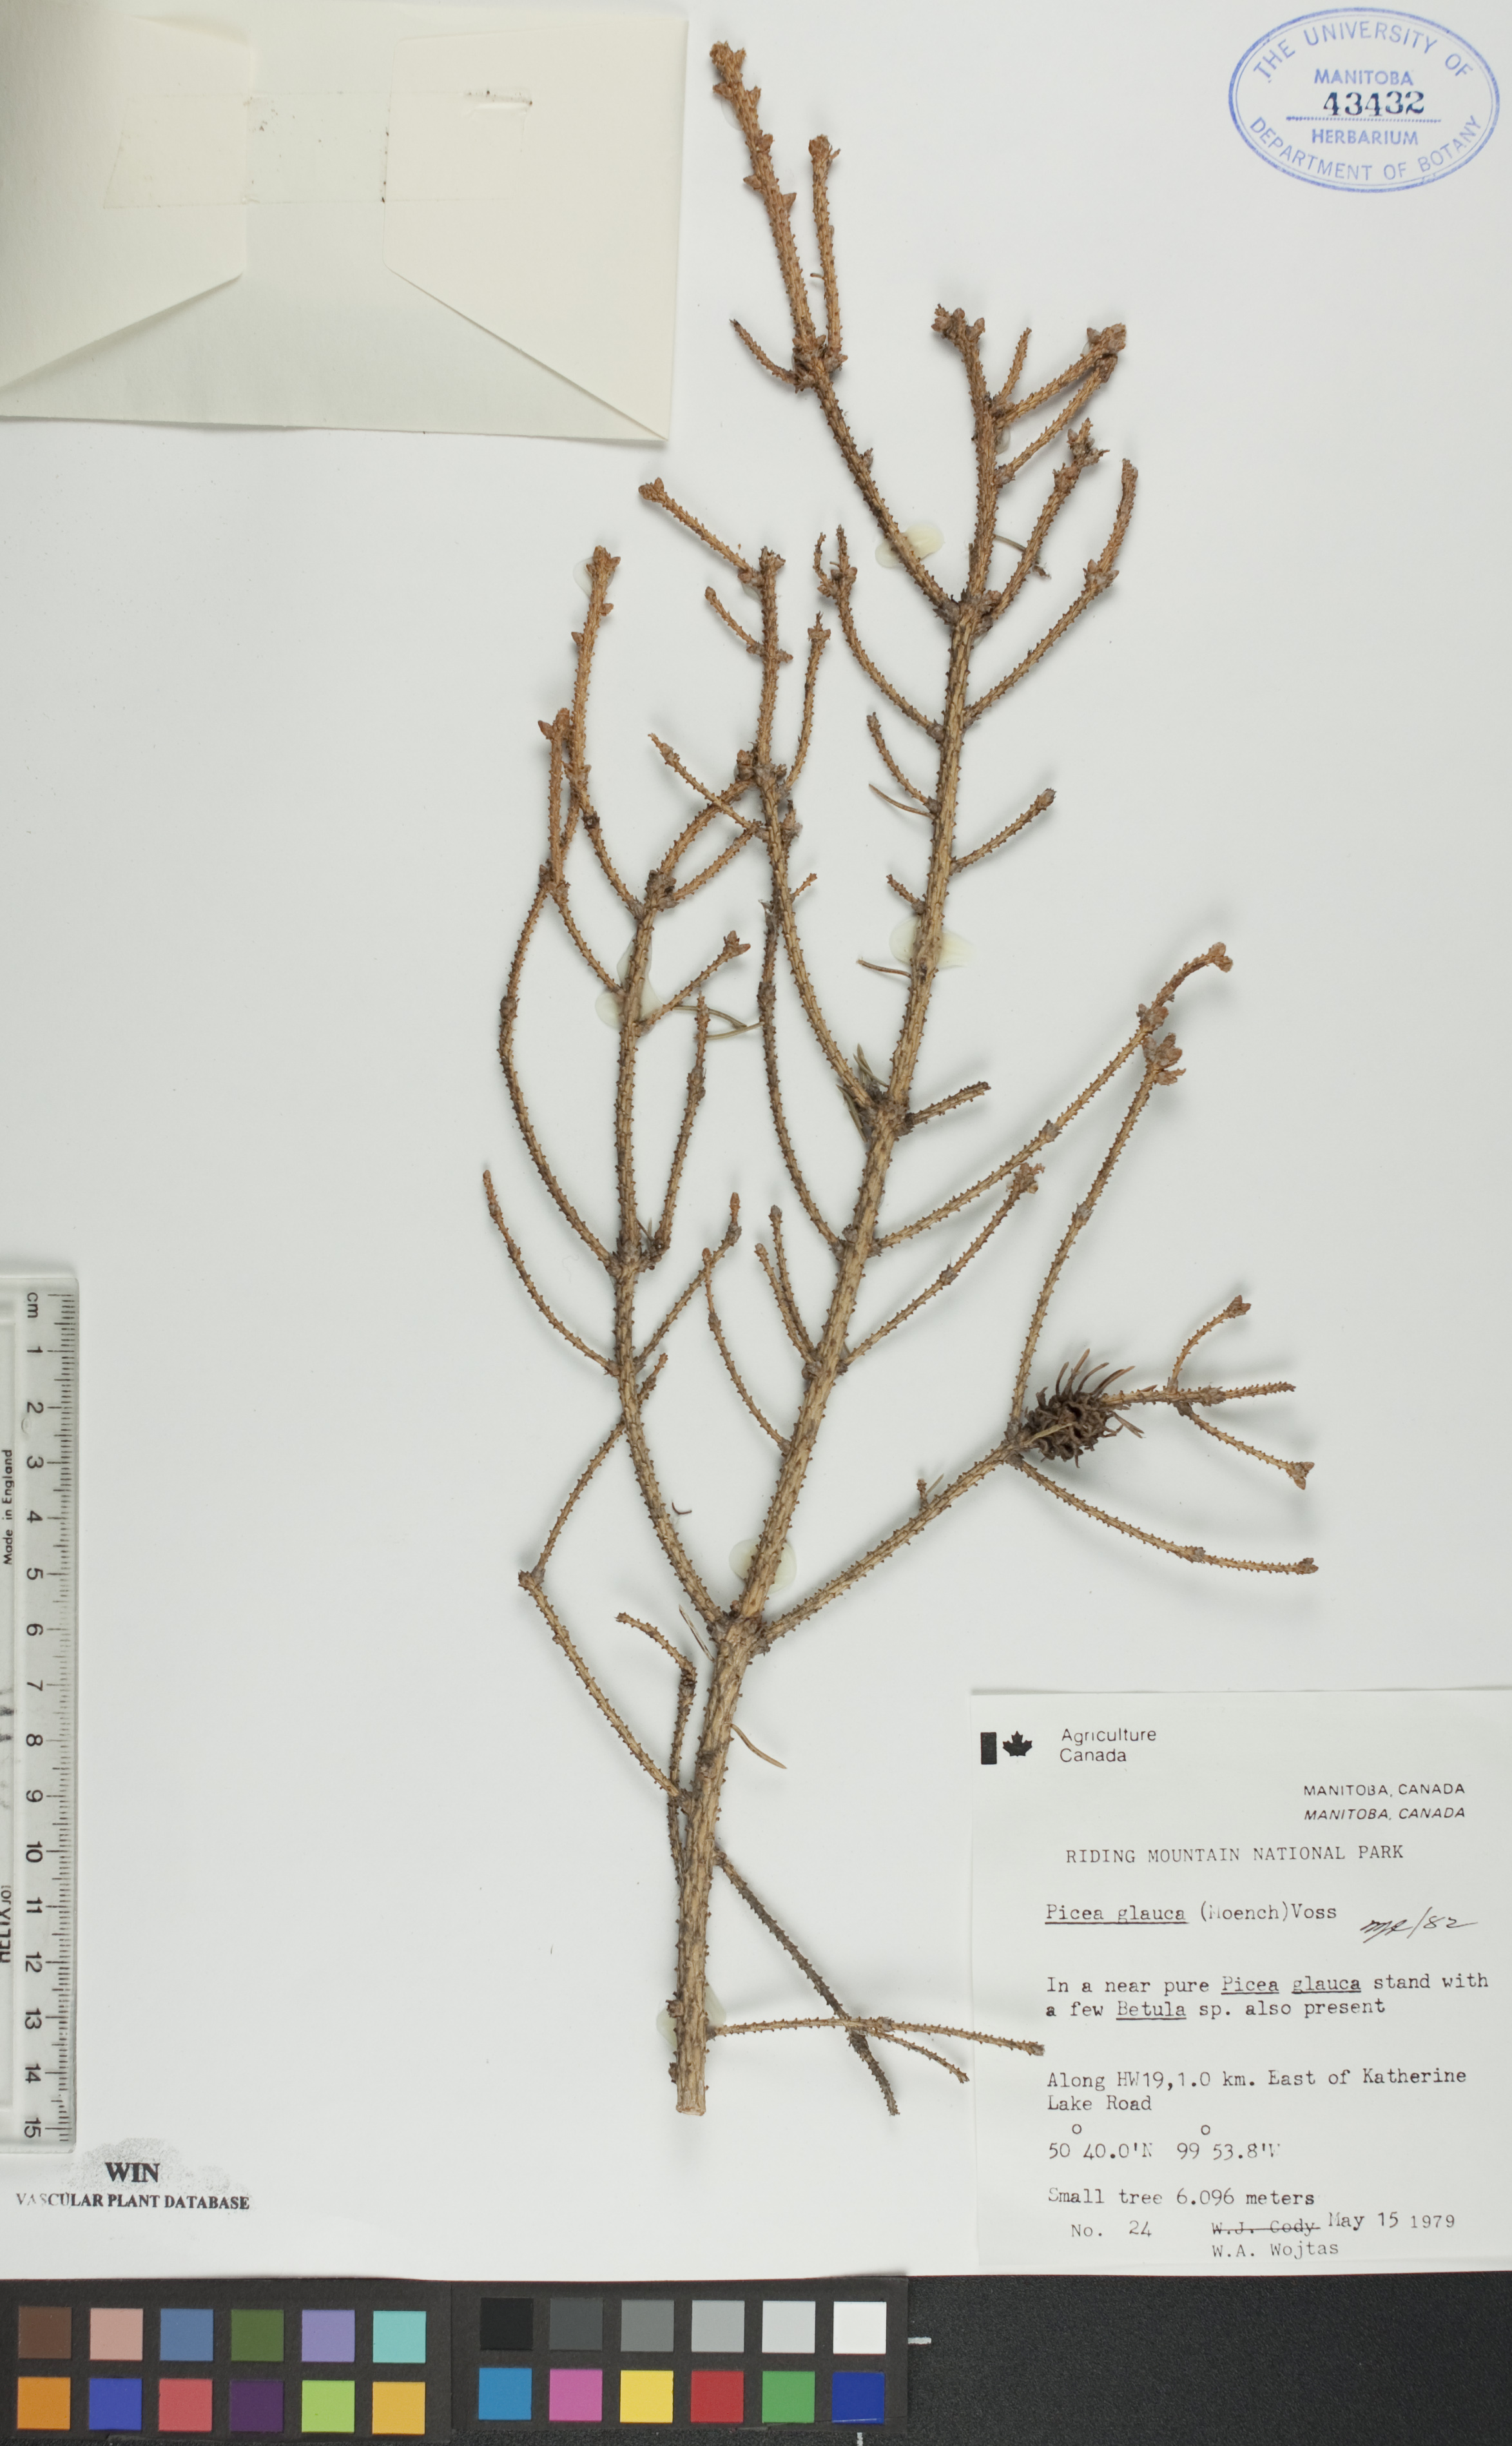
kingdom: Plantae
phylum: Tracheophyta
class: Pinopsida
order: Pinales
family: Pinaceae
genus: Picea
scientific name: Picea glauca
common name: White spruce
